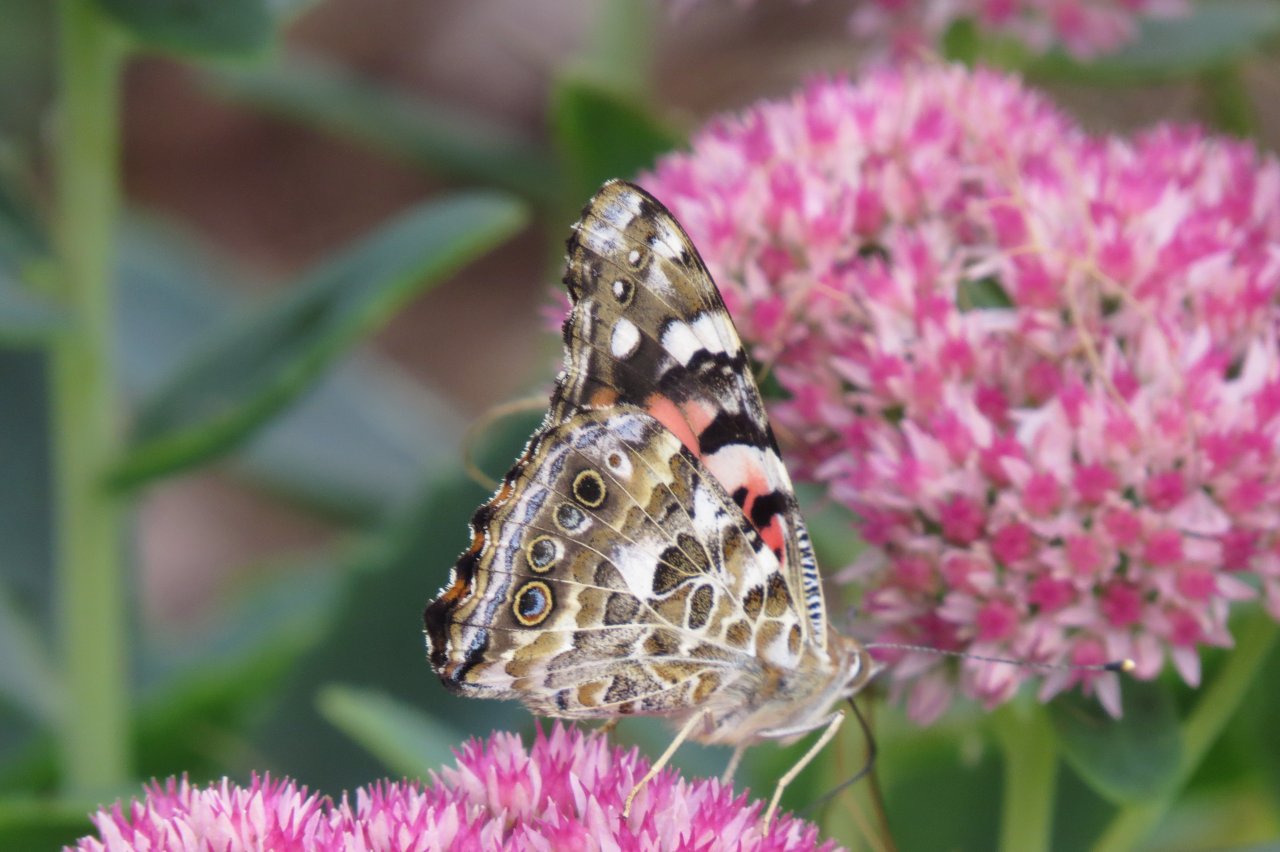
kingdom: Animalia
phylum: Arthropoda
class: Insecta
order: Lepidoptera
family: Nymphalidae
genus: Vanessa
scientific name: Vanessa cardui
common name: Painted Lady
